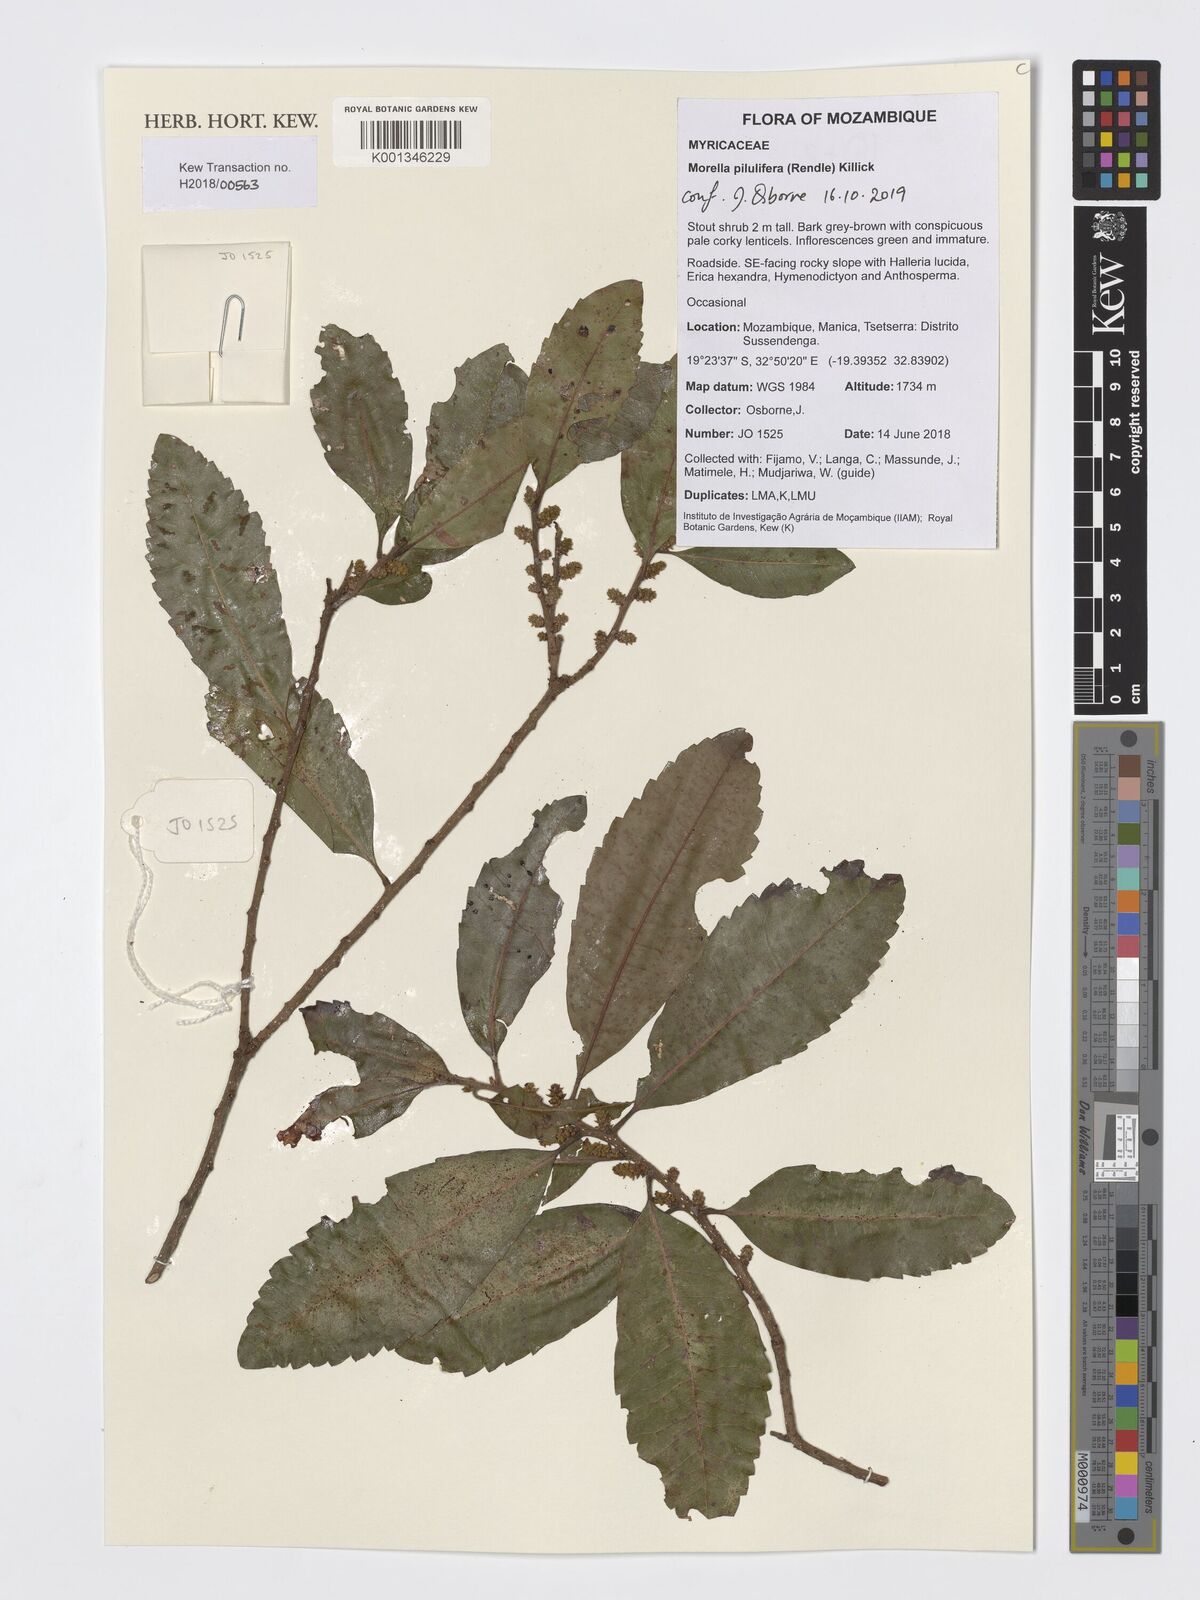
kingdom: Plantae
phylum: Tracheophyta
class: Magnoliopsida
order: Fagales
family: Myricaceae
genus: Morella
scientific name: Morella pilulifera
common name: Broad-leaved waxberry
